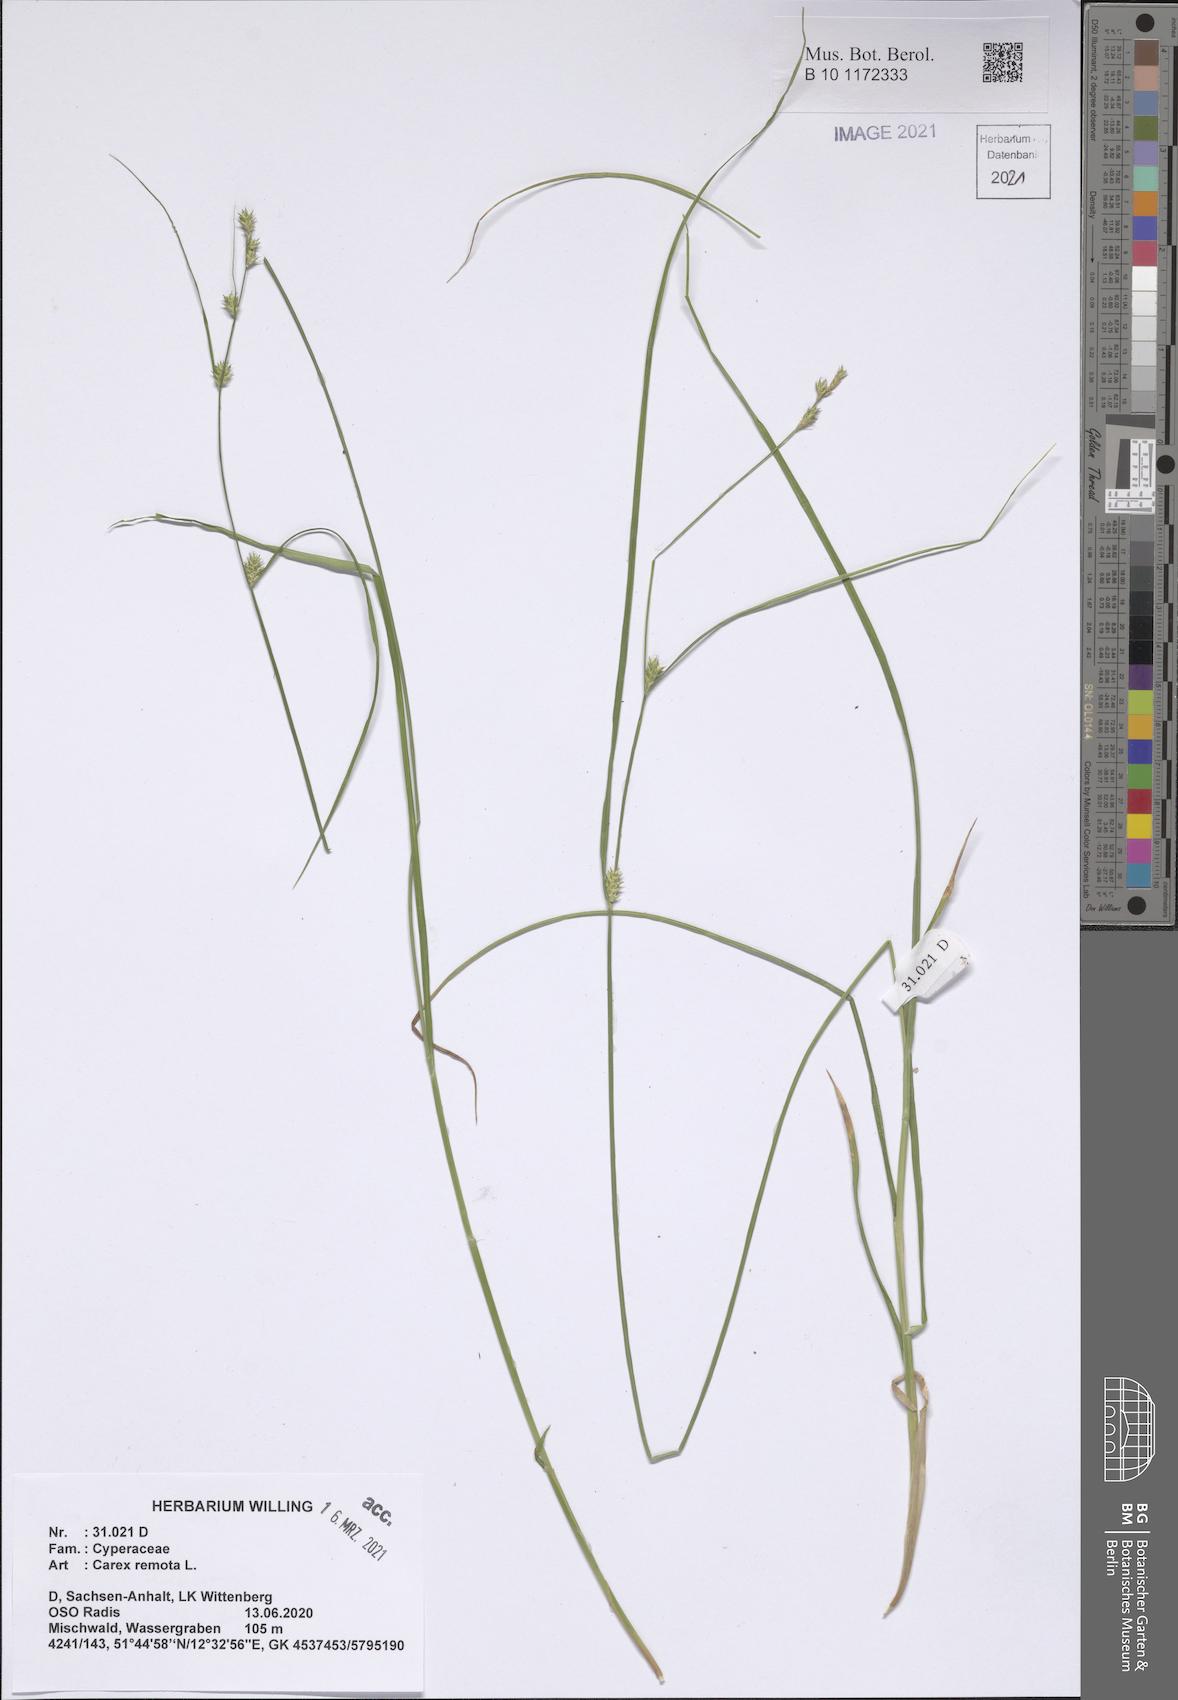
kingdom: Plantae
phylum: Tracheophyta
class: Liliopsida
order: Poales
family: Cyperaceae
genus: Carex
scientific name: Carex remota
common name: Remote sedge
